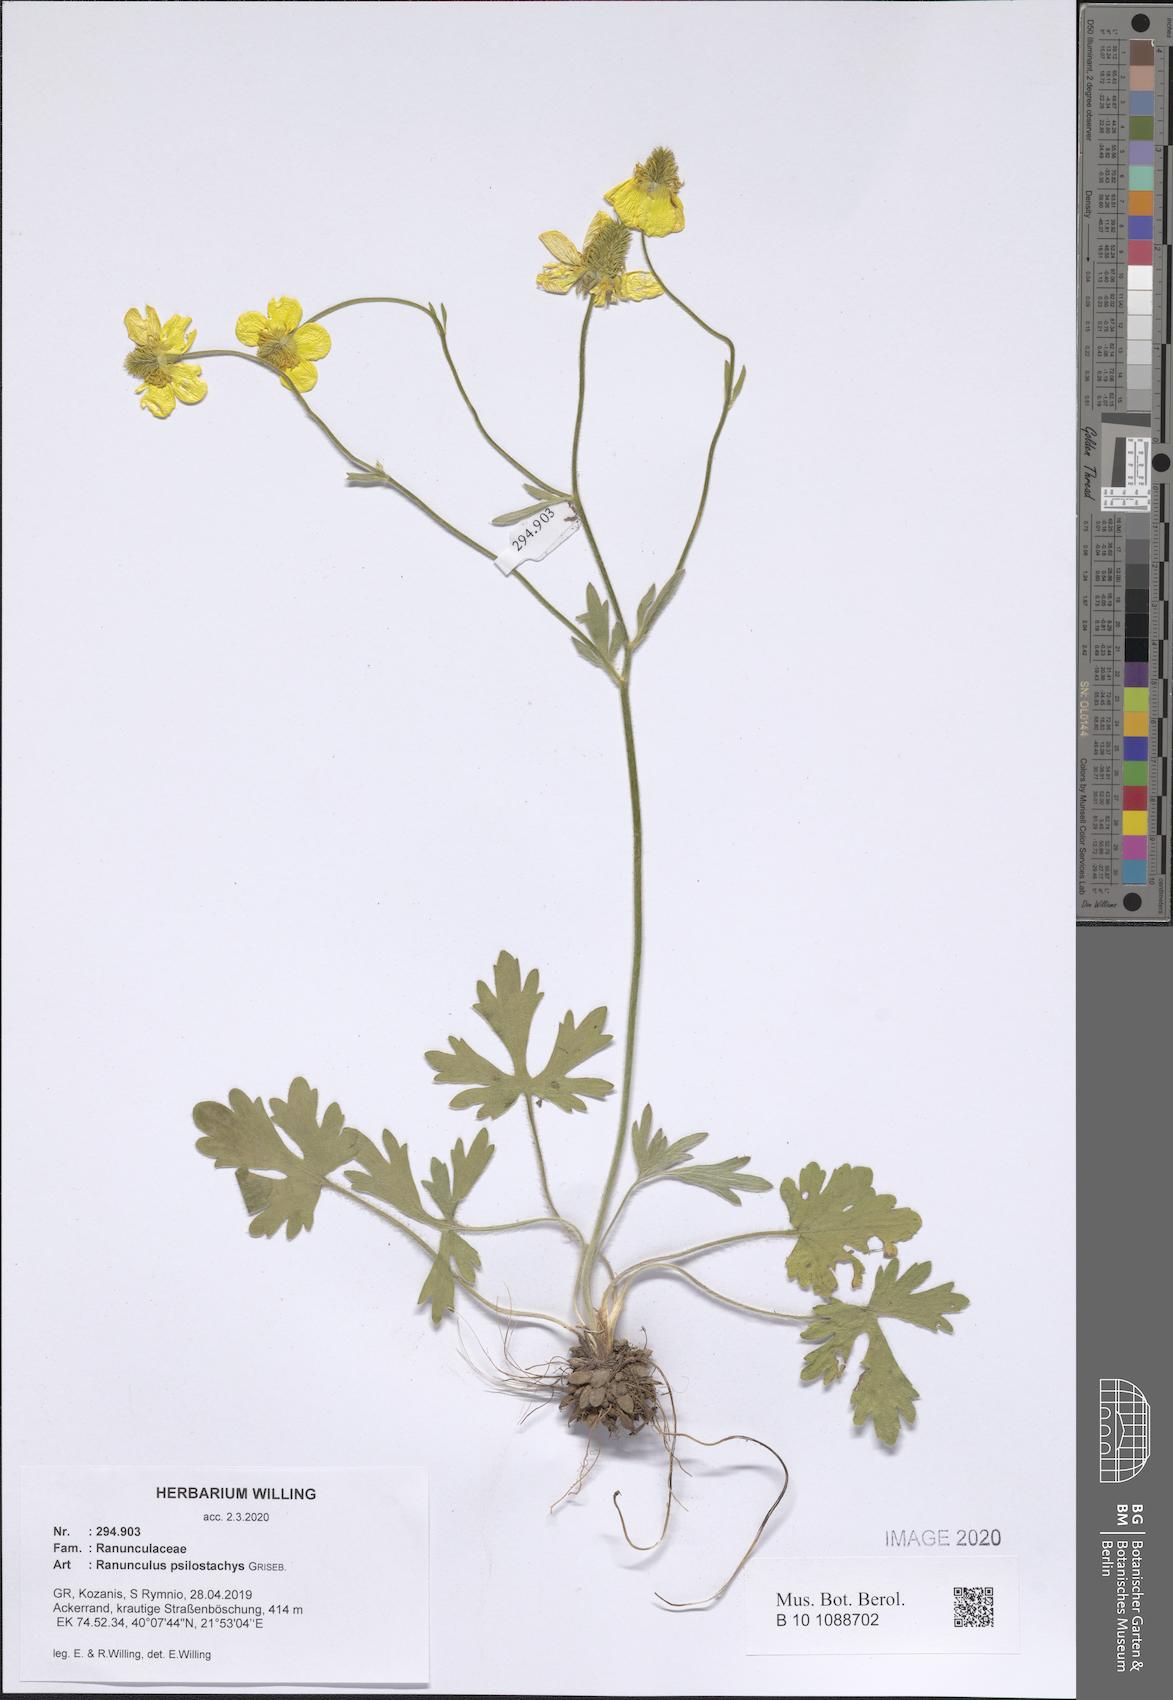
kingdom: Plantae
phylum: Tracheophyta
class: Magnoliopsida
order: Ranunculales
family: Ranunculaceae
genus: Ranunculus
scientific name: Ranunculus psilostachys
